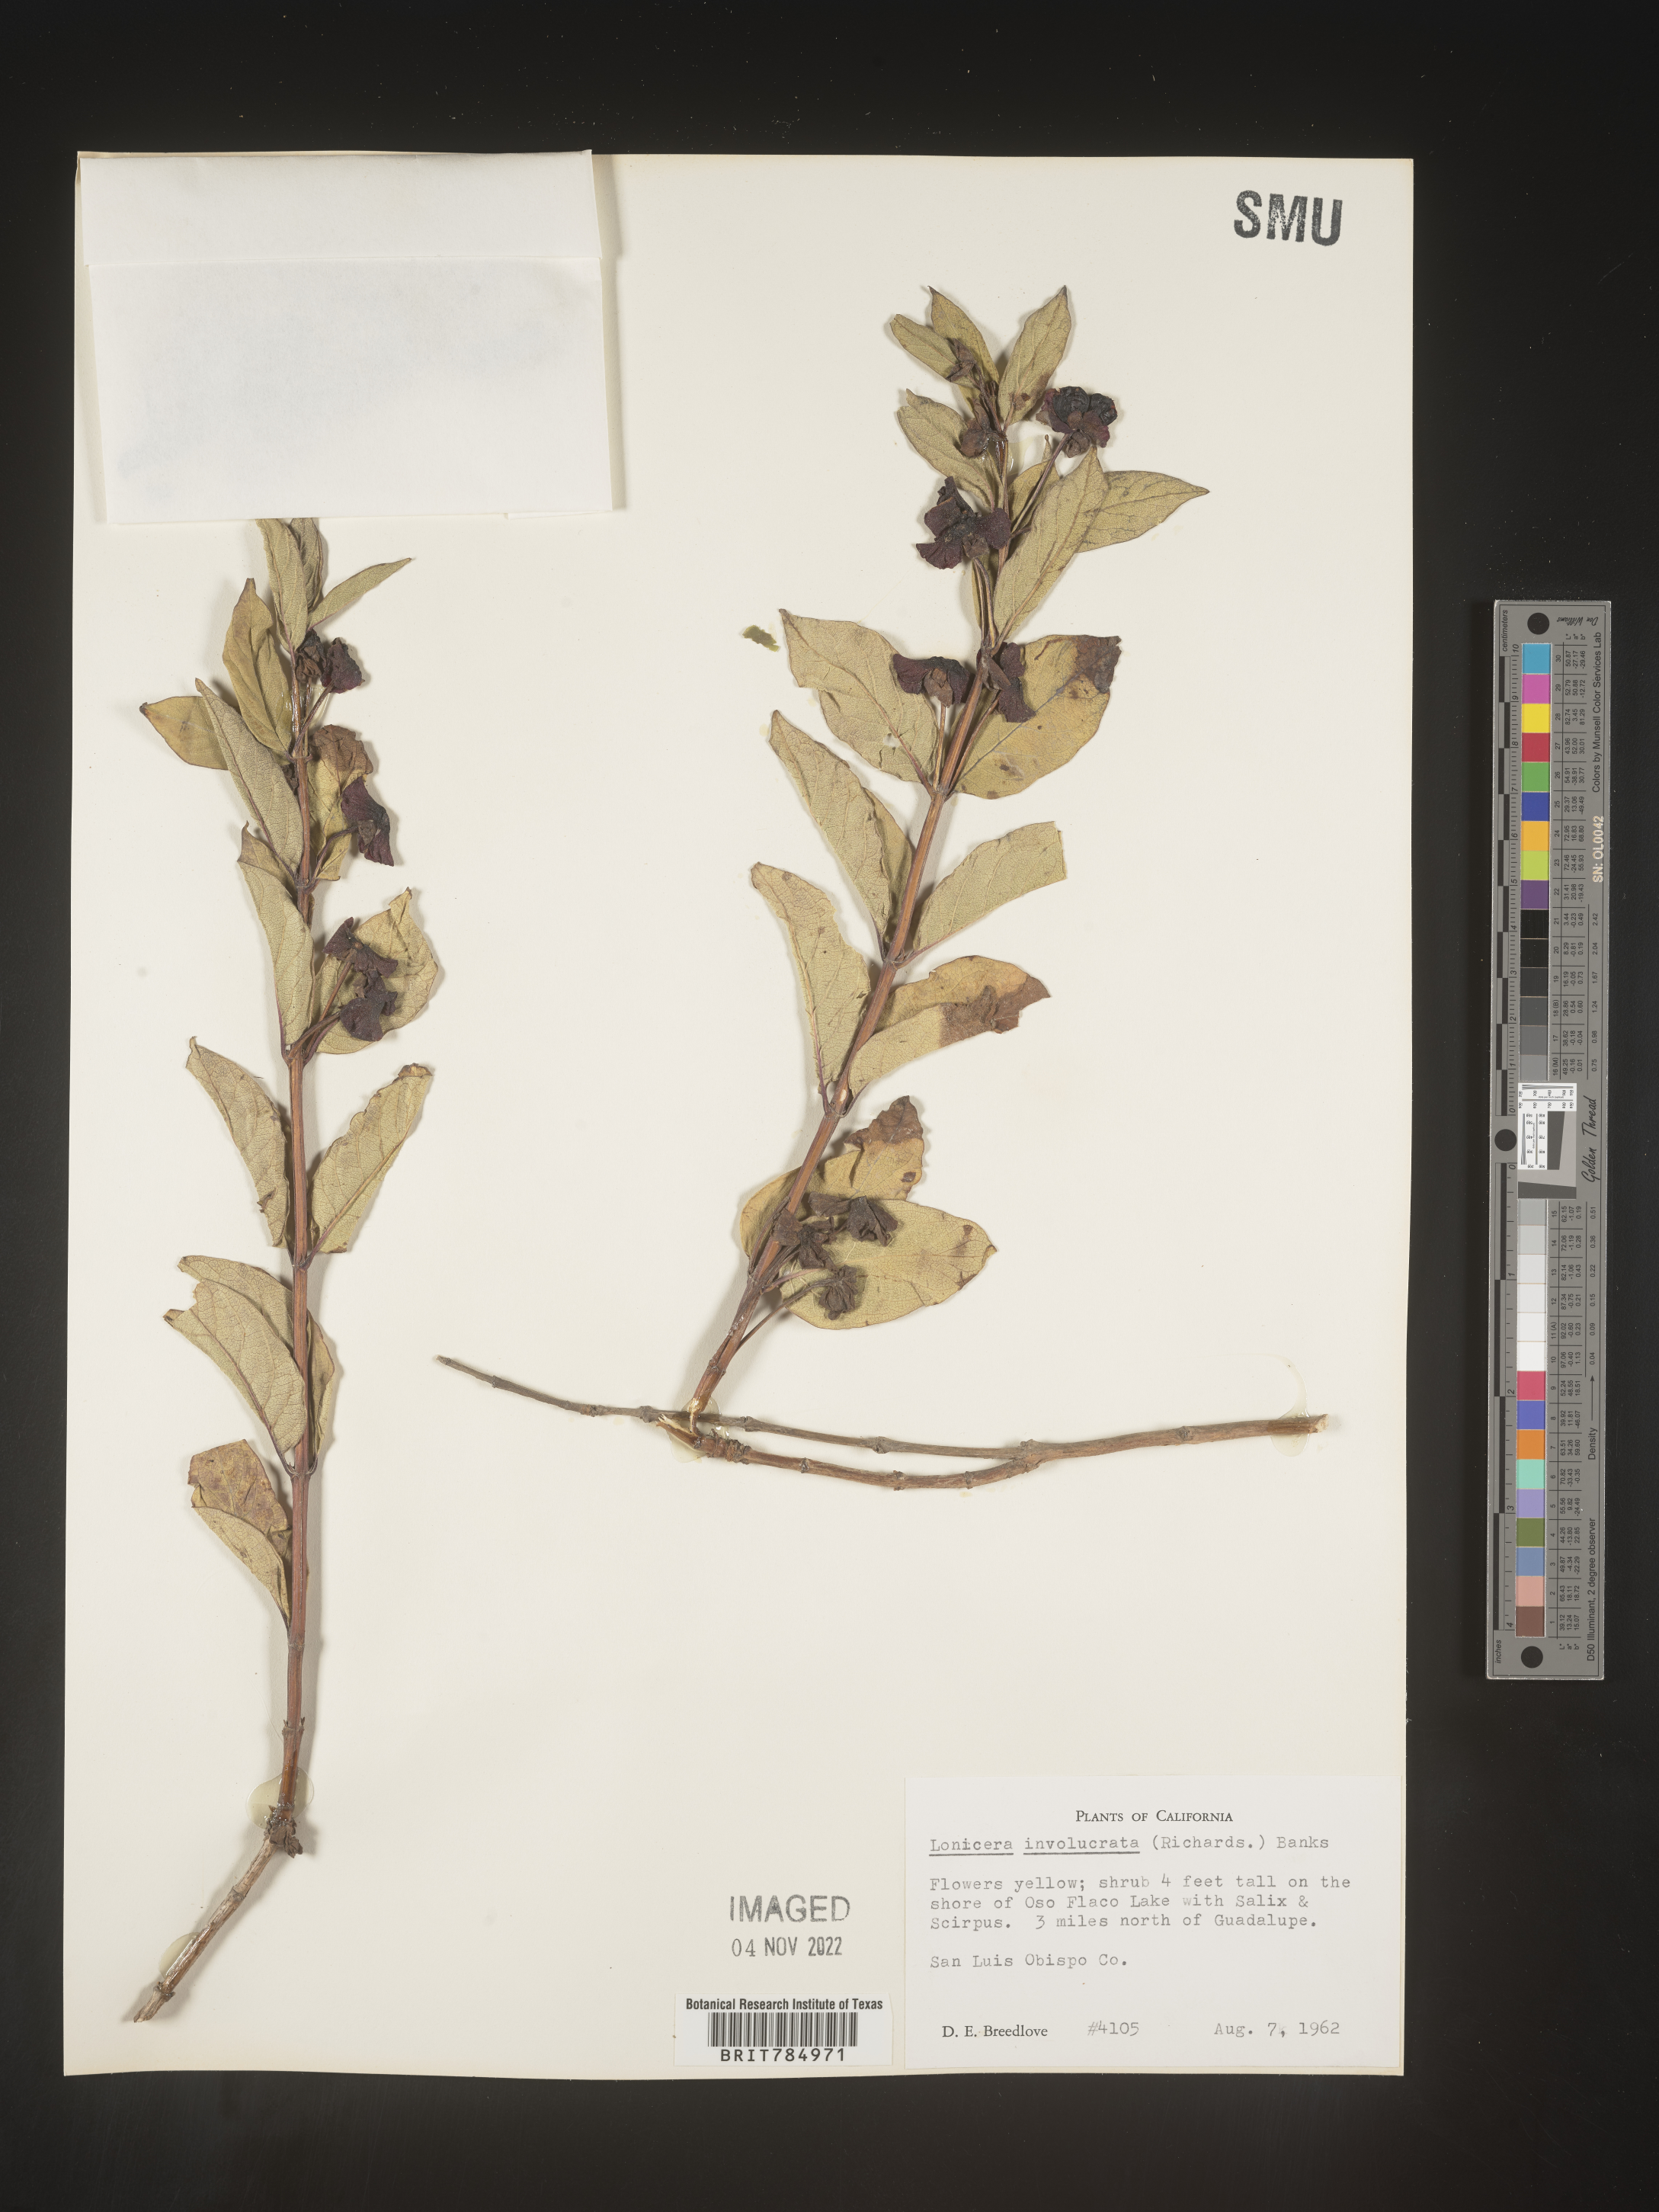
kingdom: Plantae
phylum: Tracheophyta
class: Magnoliopsida
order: Dipsacales
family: Caprifoliaceae
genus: Lonicera
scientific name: Lonicera involucrata
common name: Californian honeysuckle
